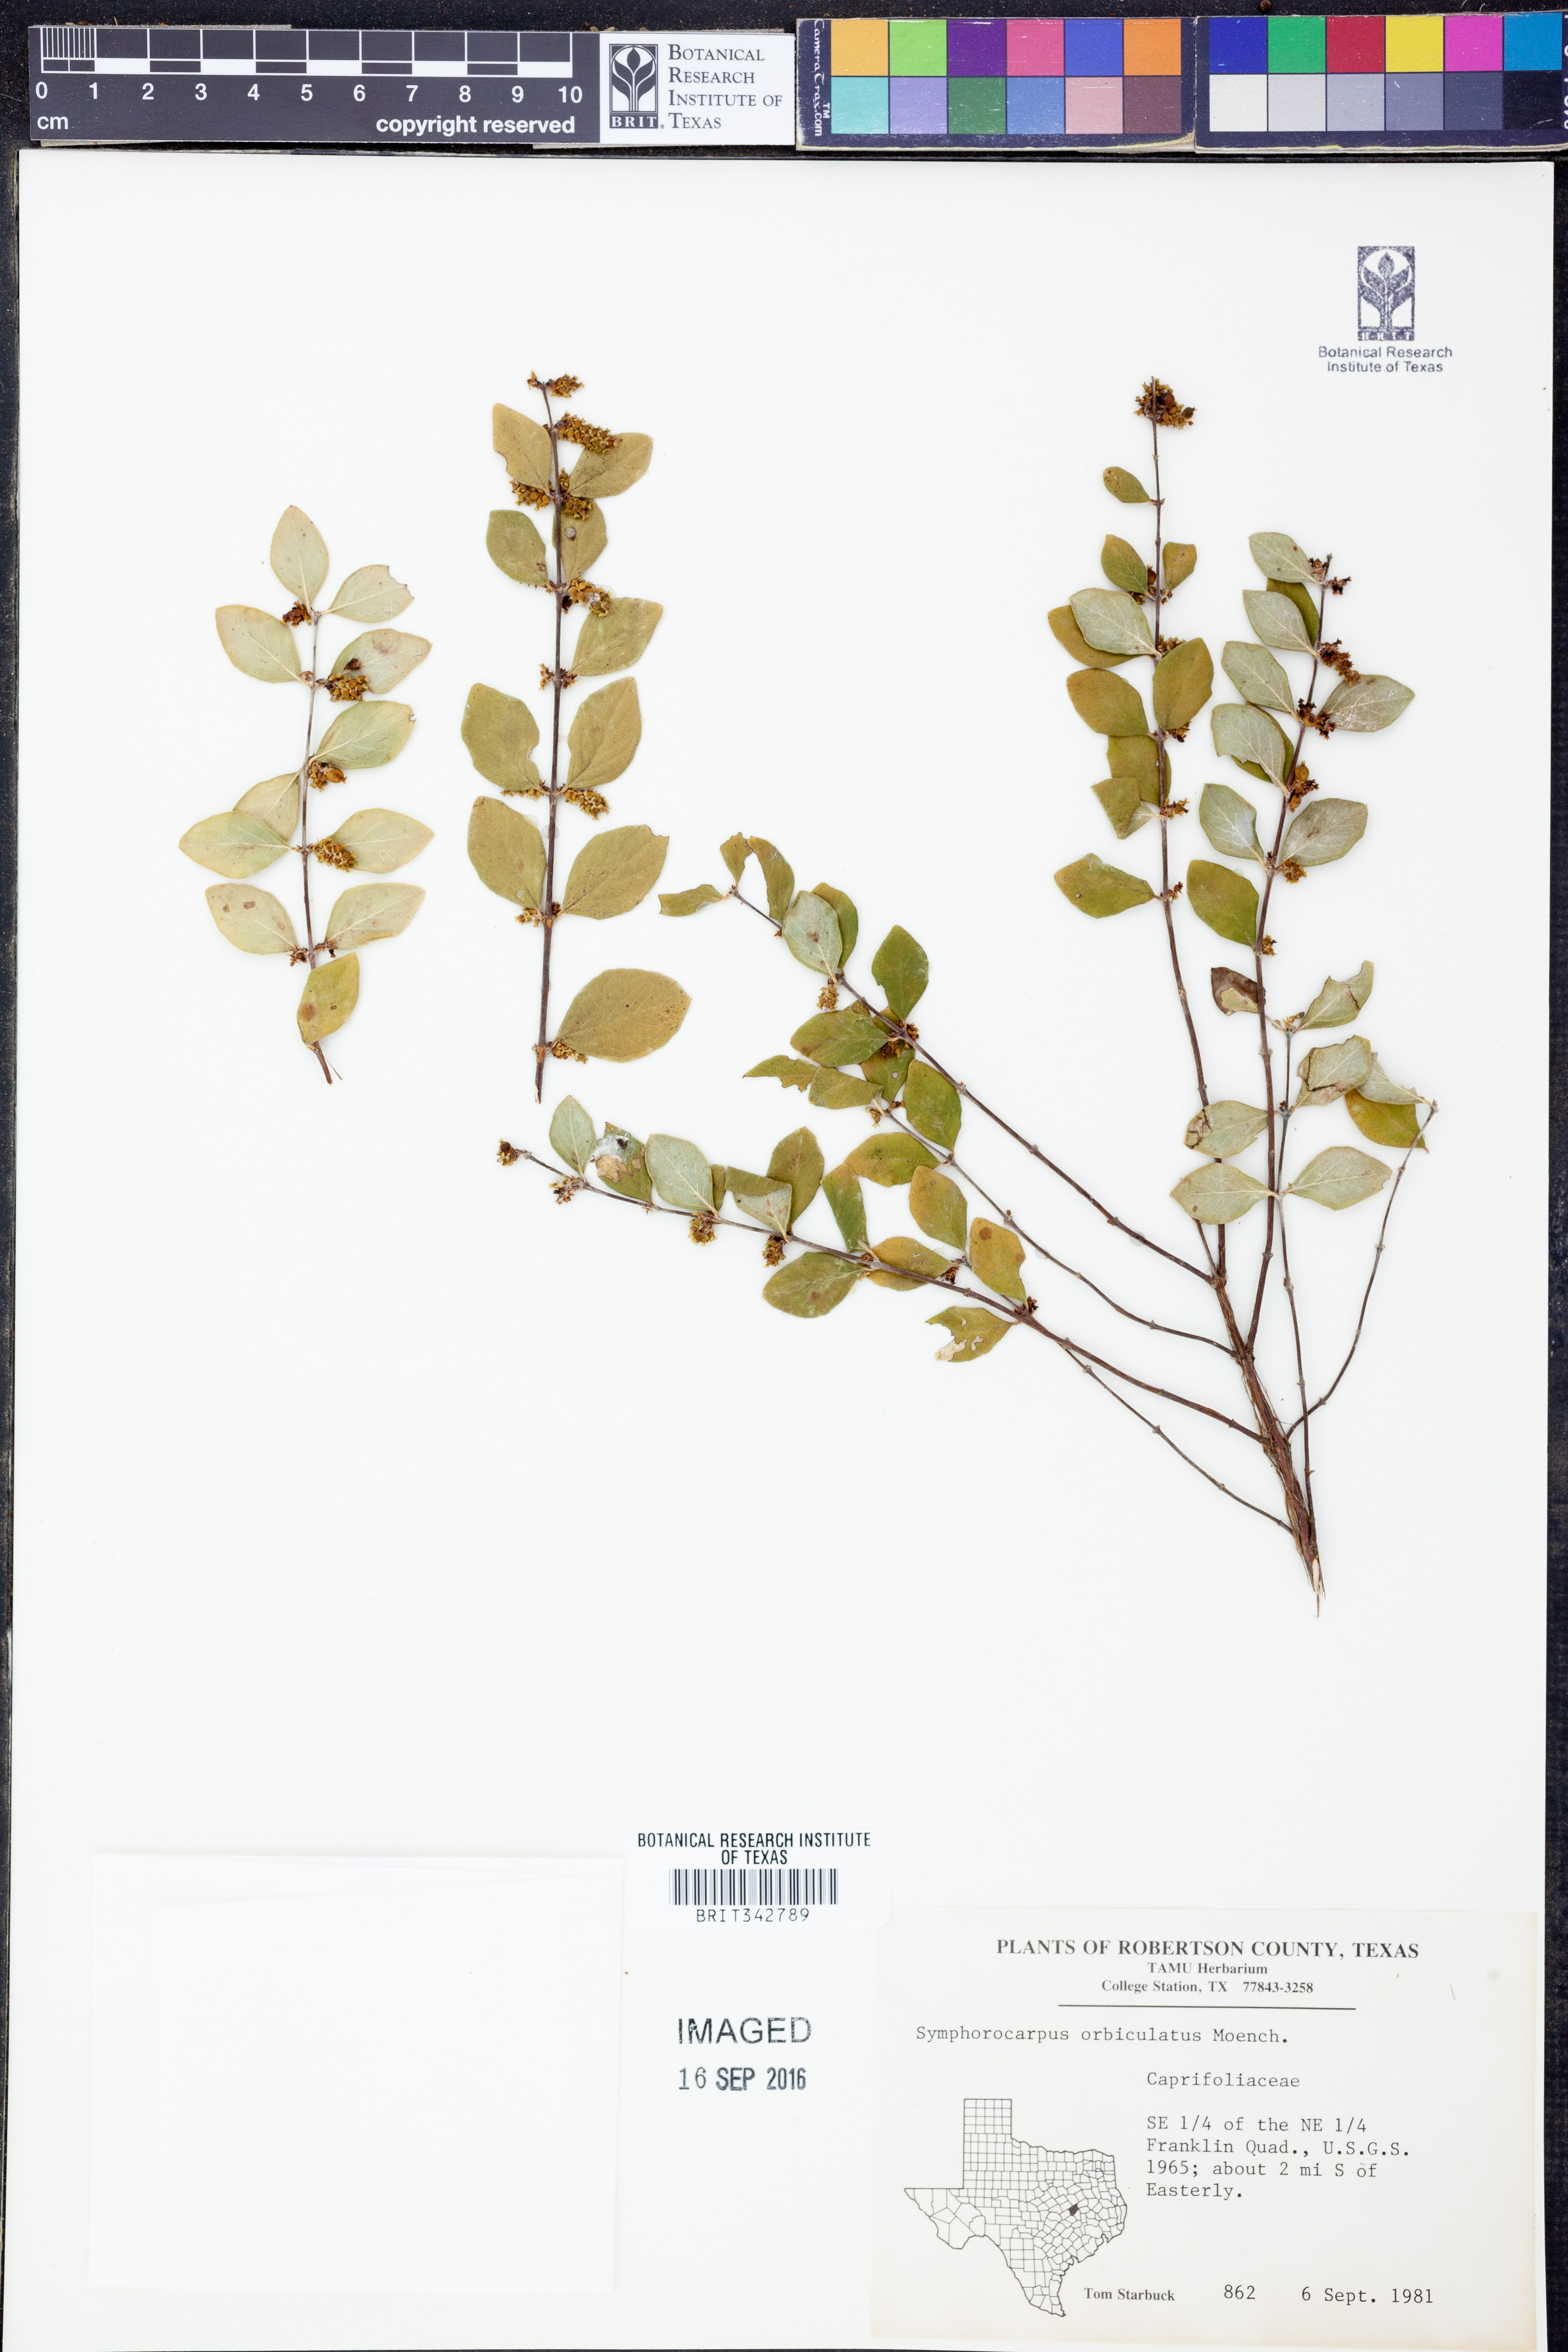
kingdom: Plantae
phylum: Tracheophyta
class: Magnoliopsida
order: Dipsacales
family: Caprifoliaceae
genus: Symphoricarpos
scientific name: Symphoricarpos orbiculatus
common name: Coralberry
